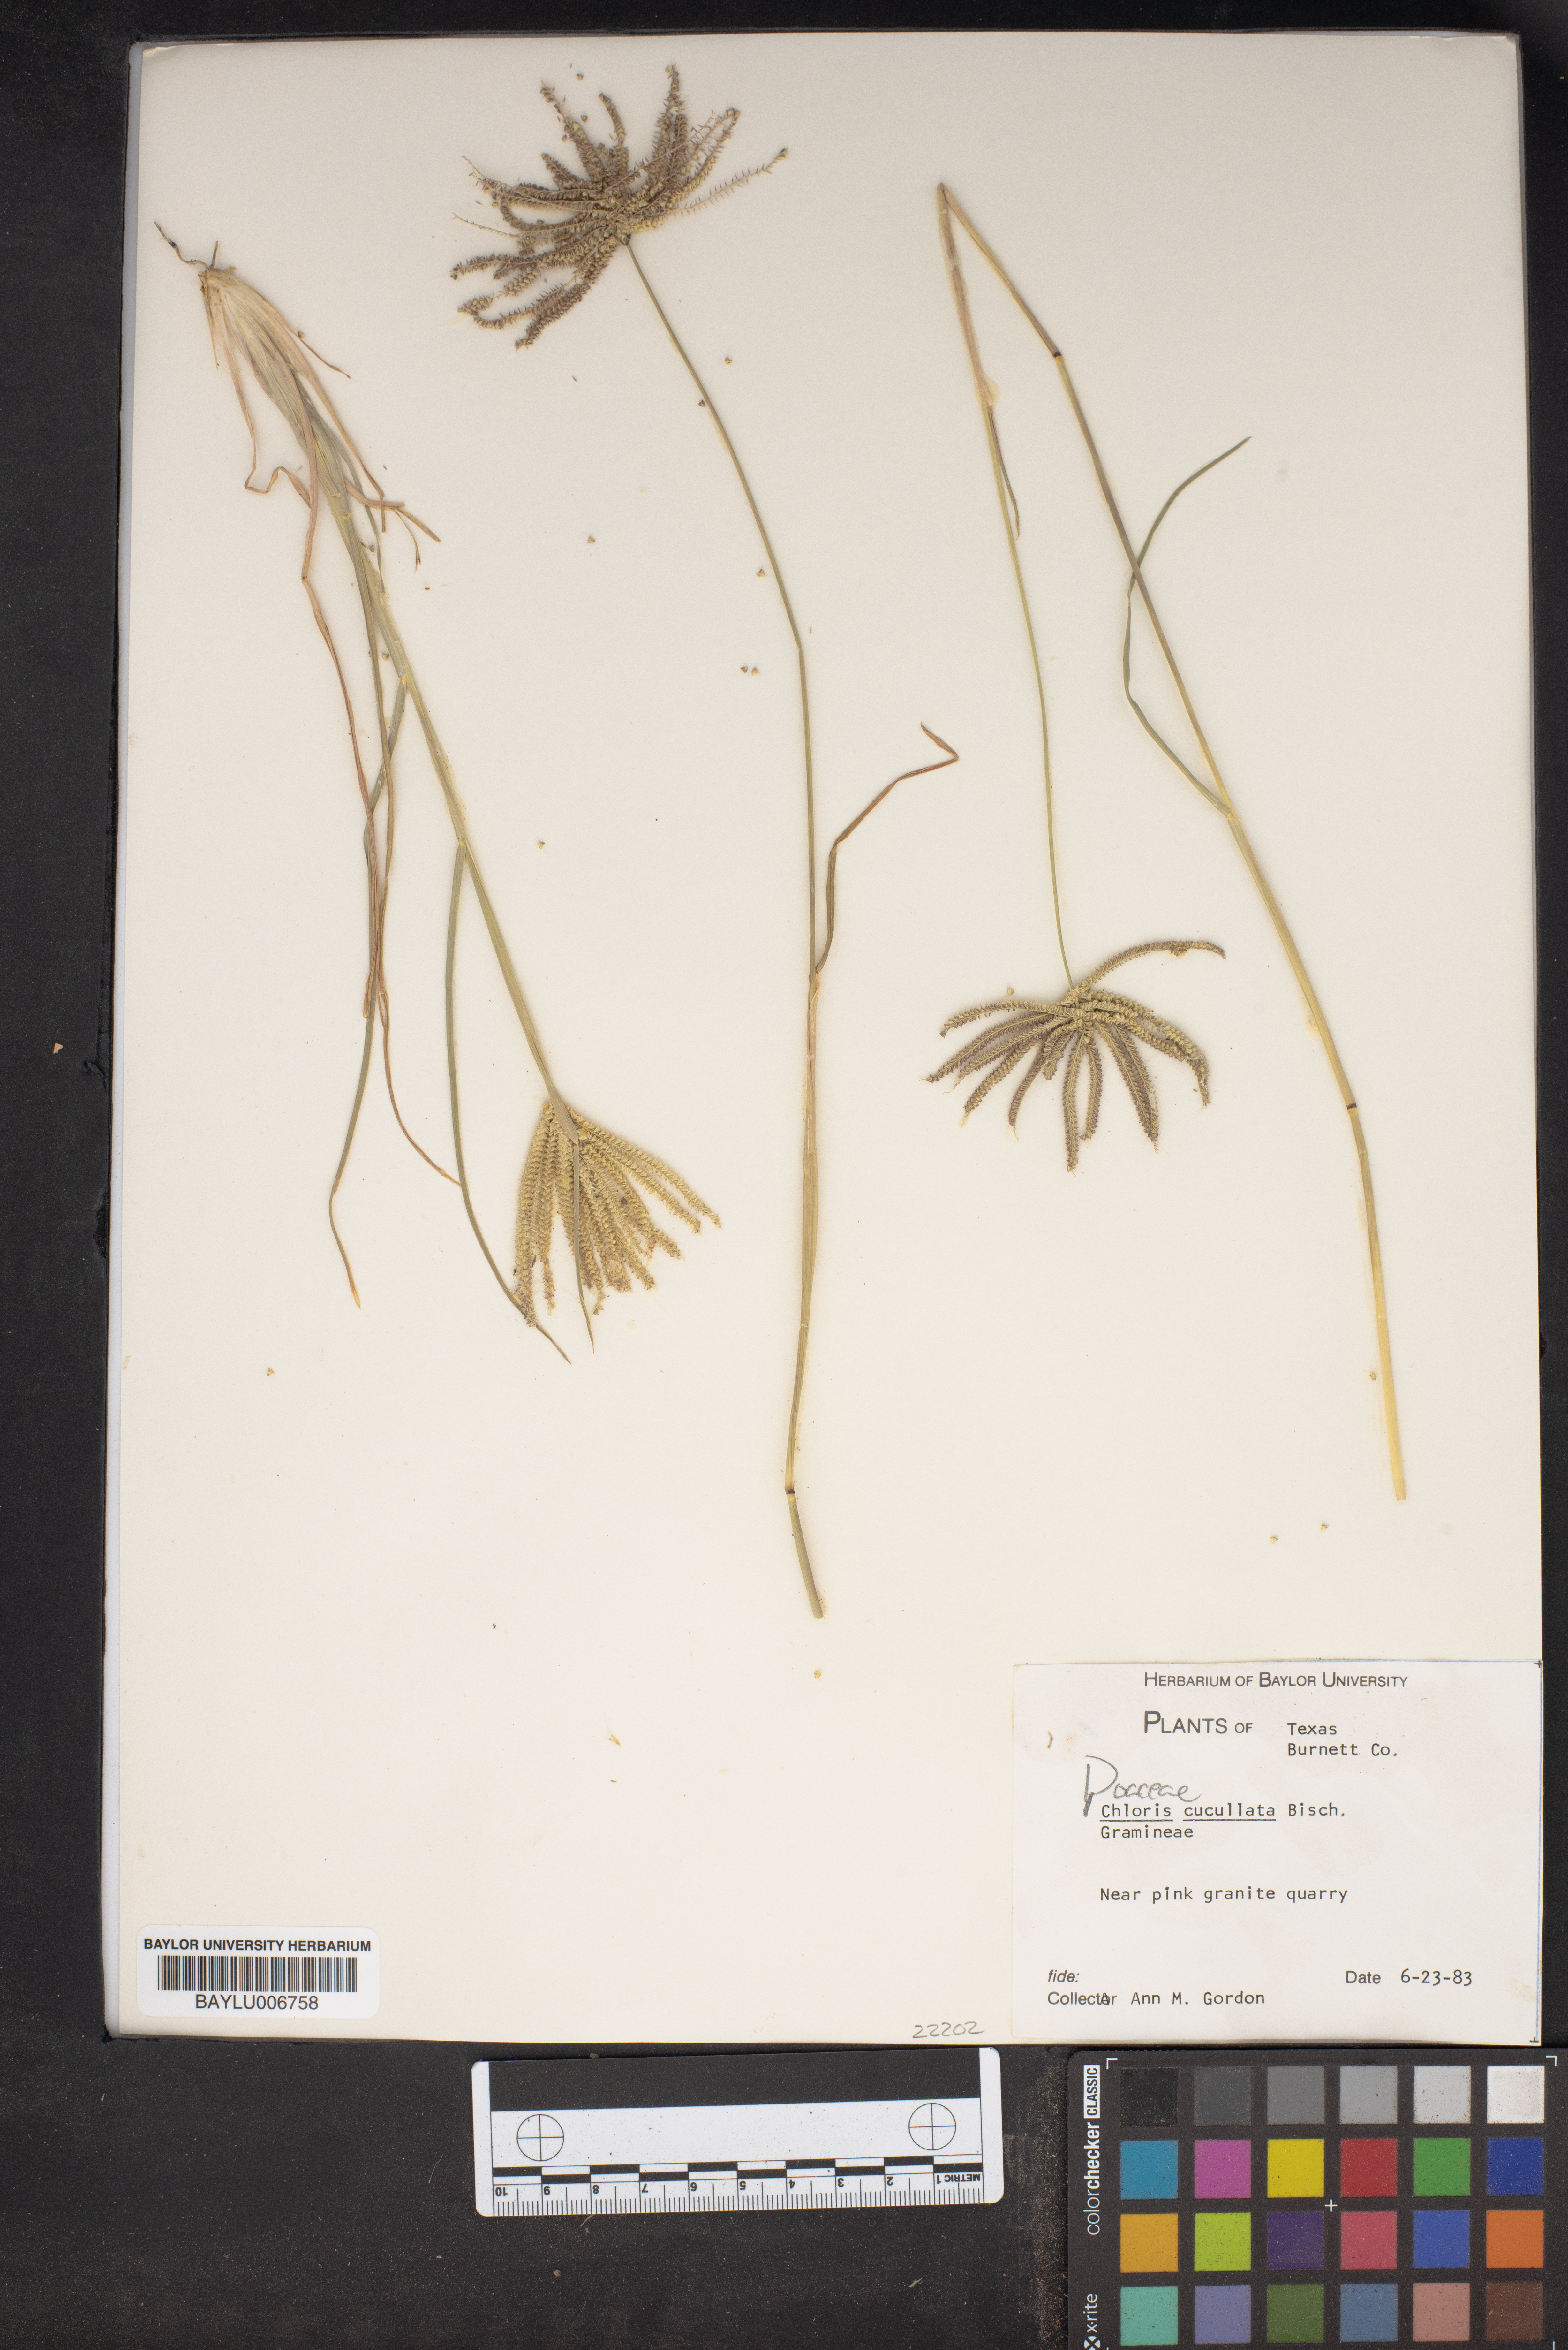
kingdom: Plantae
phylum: Tracheophyta
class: Liliopsida
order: Poales
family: Poaceae
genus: Chloris
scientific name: Chloris cucullata
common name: Hooded windmill grass
